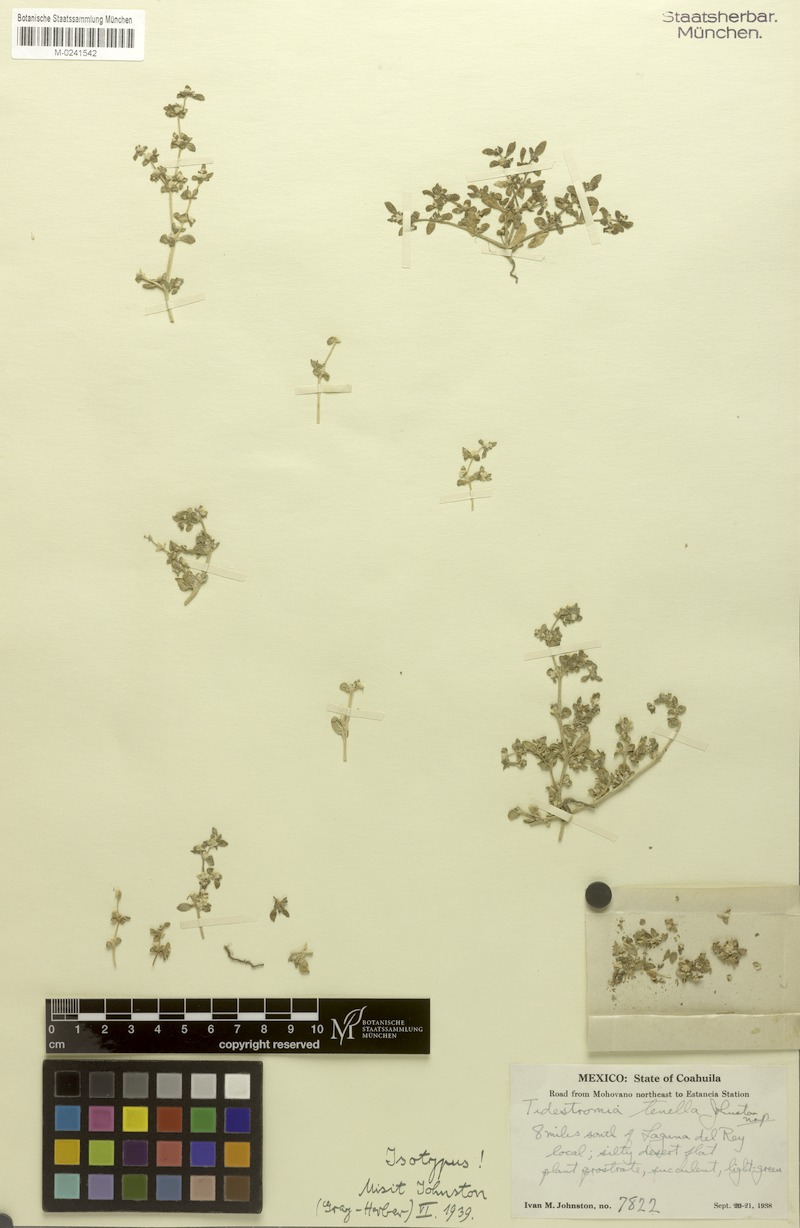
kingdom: Plantae
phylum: Tracheophyta
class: Magnoliopsida
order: Caryophyllales
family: Amaranthaceae
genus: Tidestromia
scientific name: Tidestromia tenella
